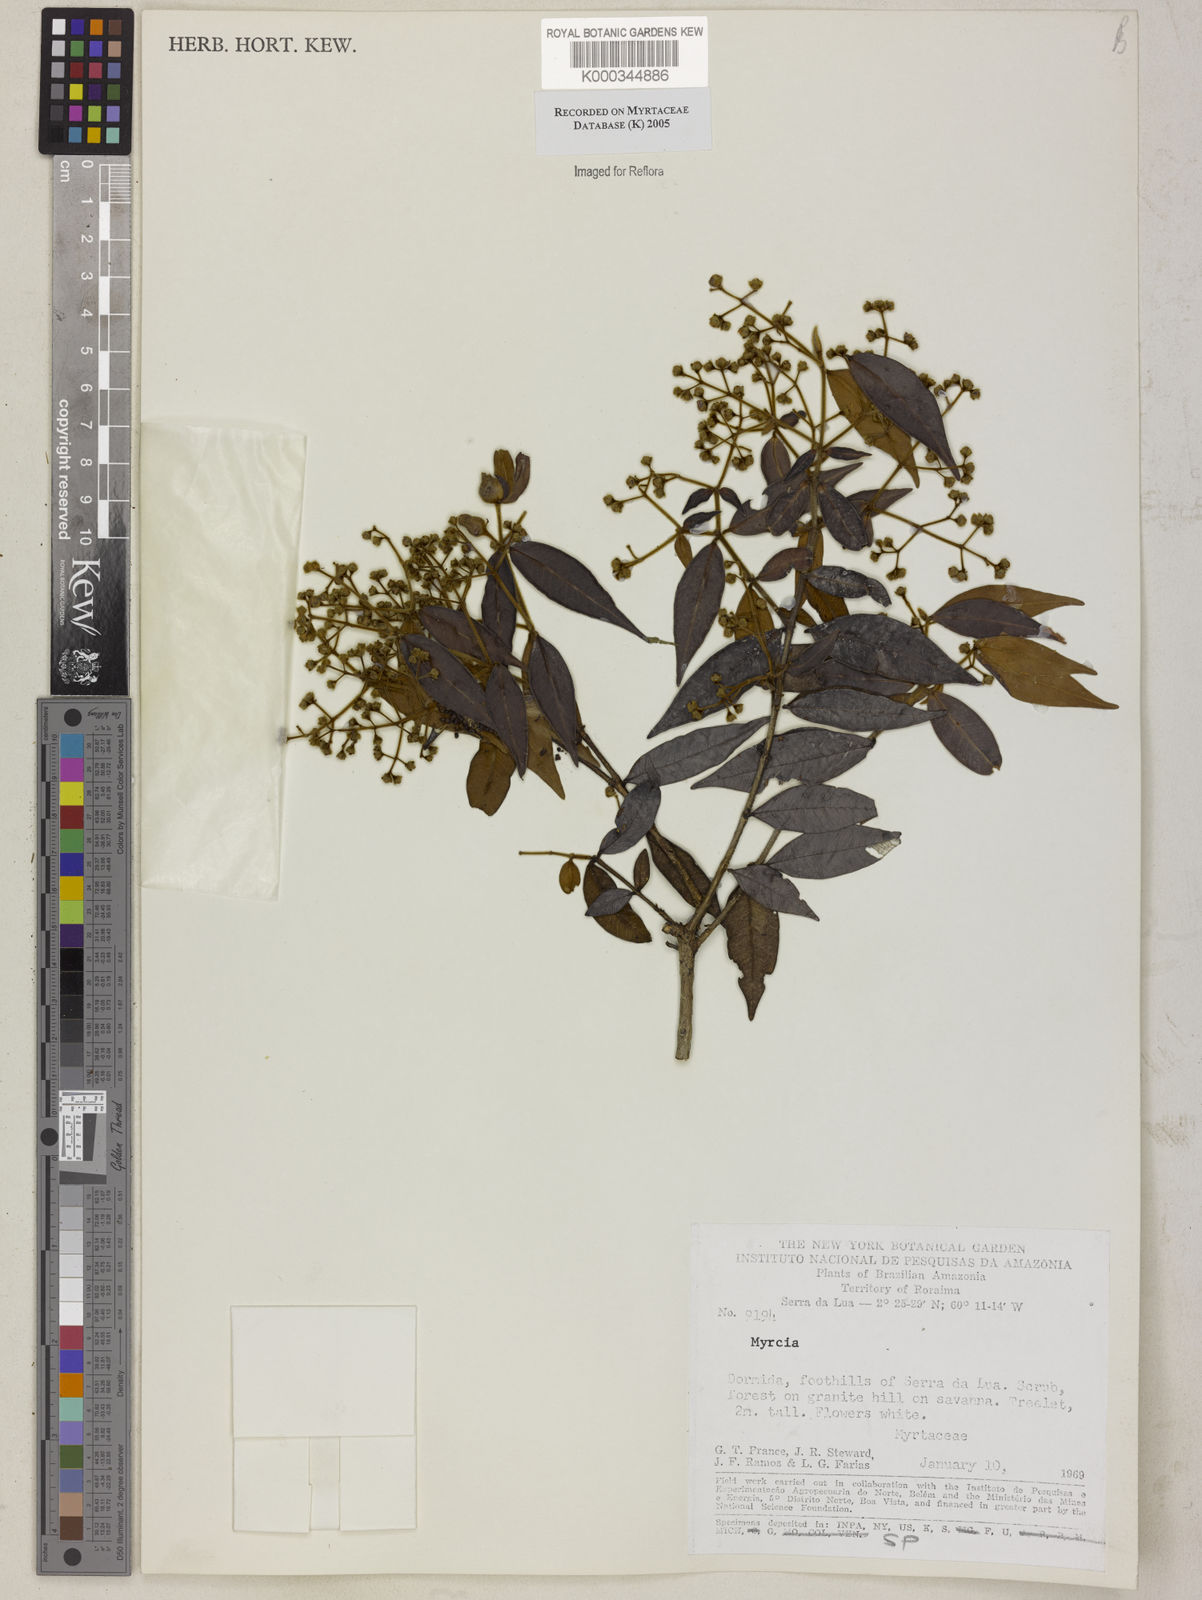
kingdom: Plantae
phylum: Tracheophyta
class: Magnoliopsida
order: Myrtales
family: Myrtaceae
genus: Myrcia
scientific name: Myrcia
